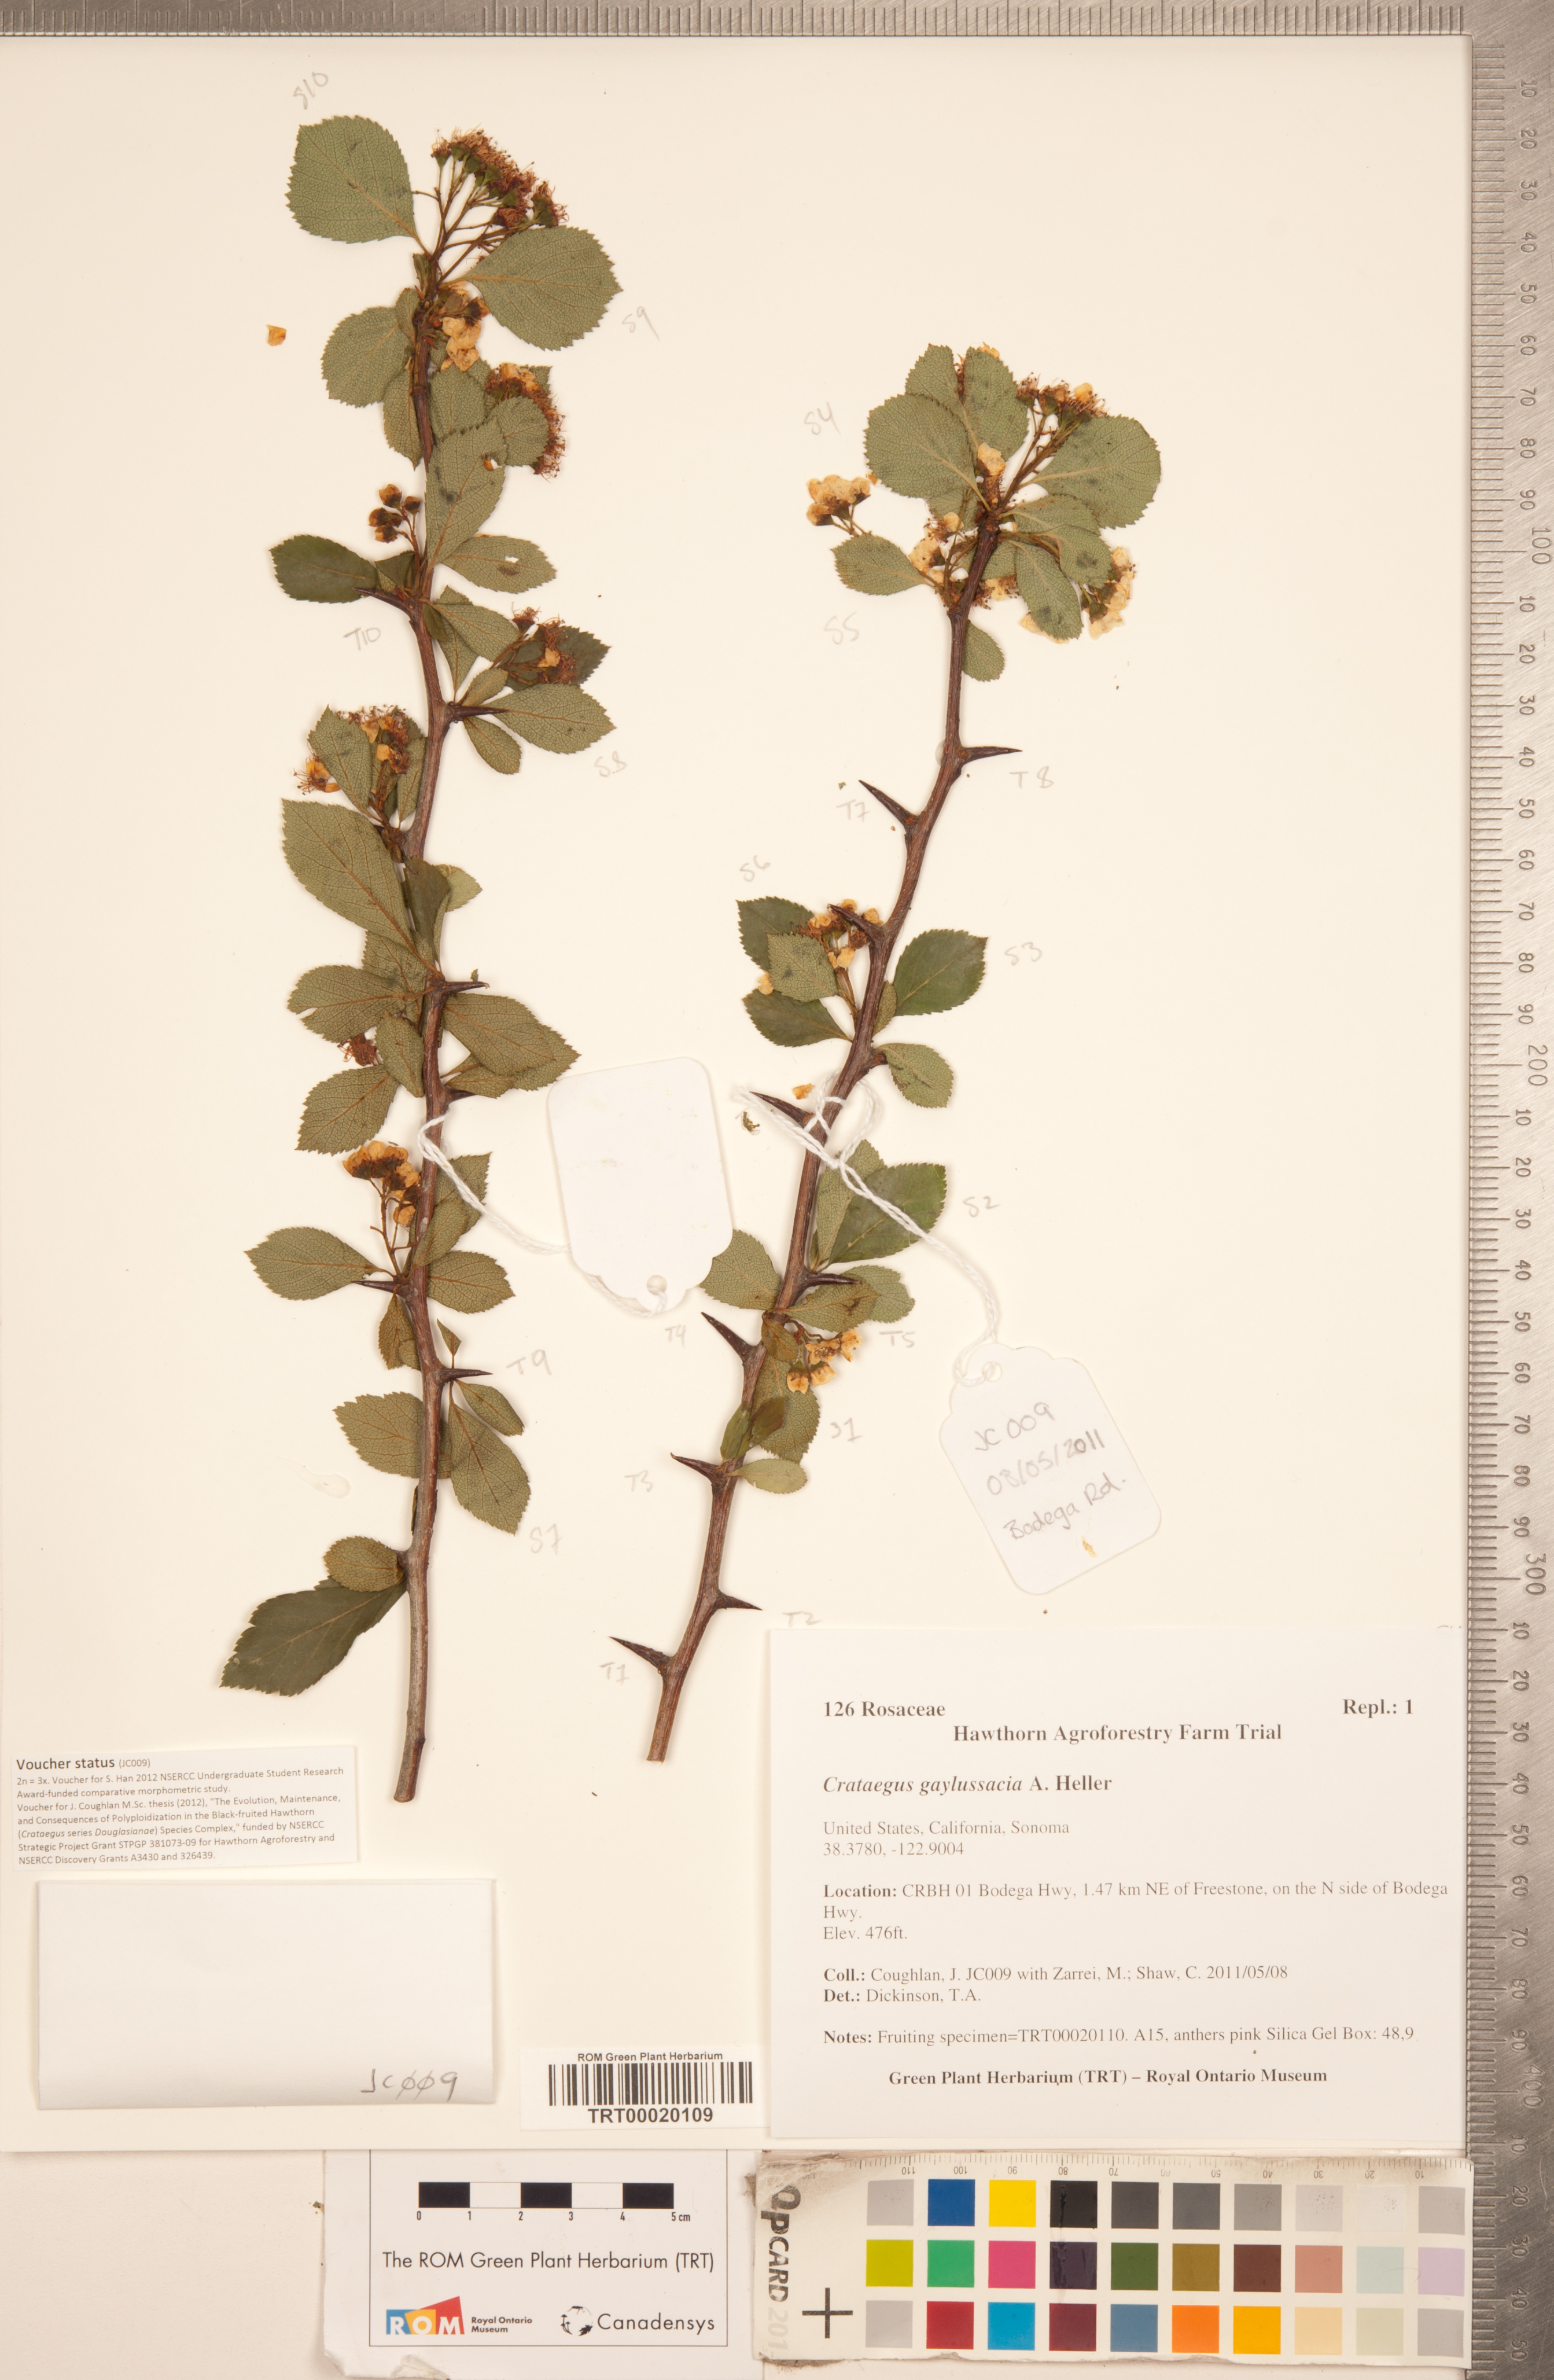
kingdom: Plantae
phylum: Tracheophyta
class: Magnoliopsida
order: Rosales
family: Rosaceae
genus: Crataegus
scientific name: Crataegus gaylussacia
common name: Huckleberry hawthorn
